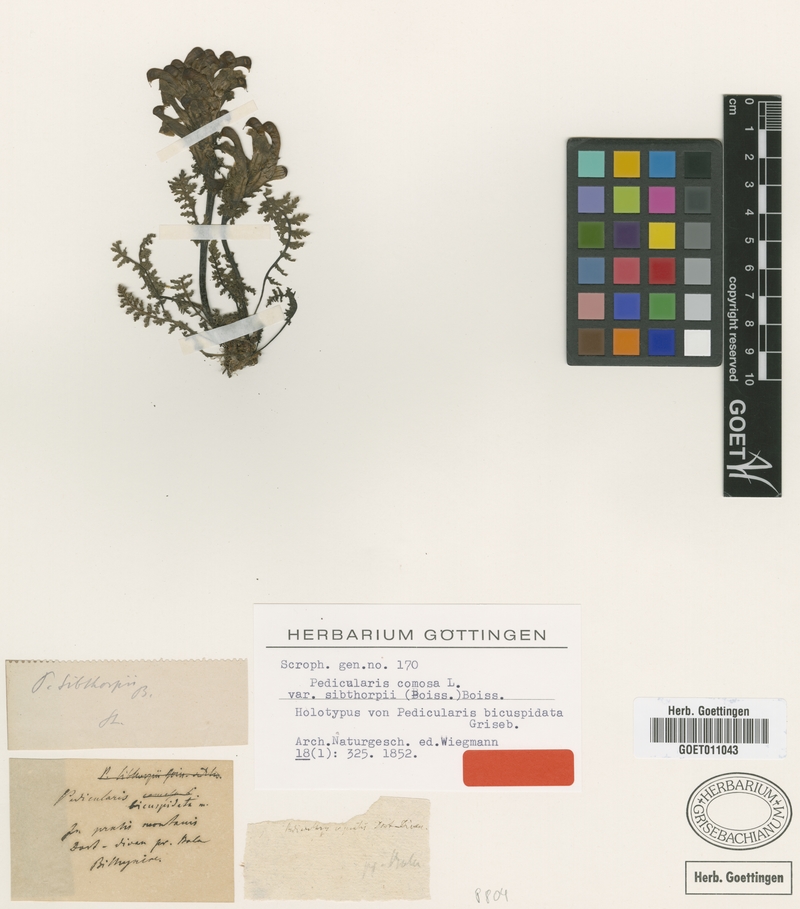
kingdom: Plantae
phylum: Tracheophyta
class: Magnoliopsida
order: Lamiales
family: Orobanchaceae
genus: Pedicularis
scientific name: Pedicularis sibthorpii
